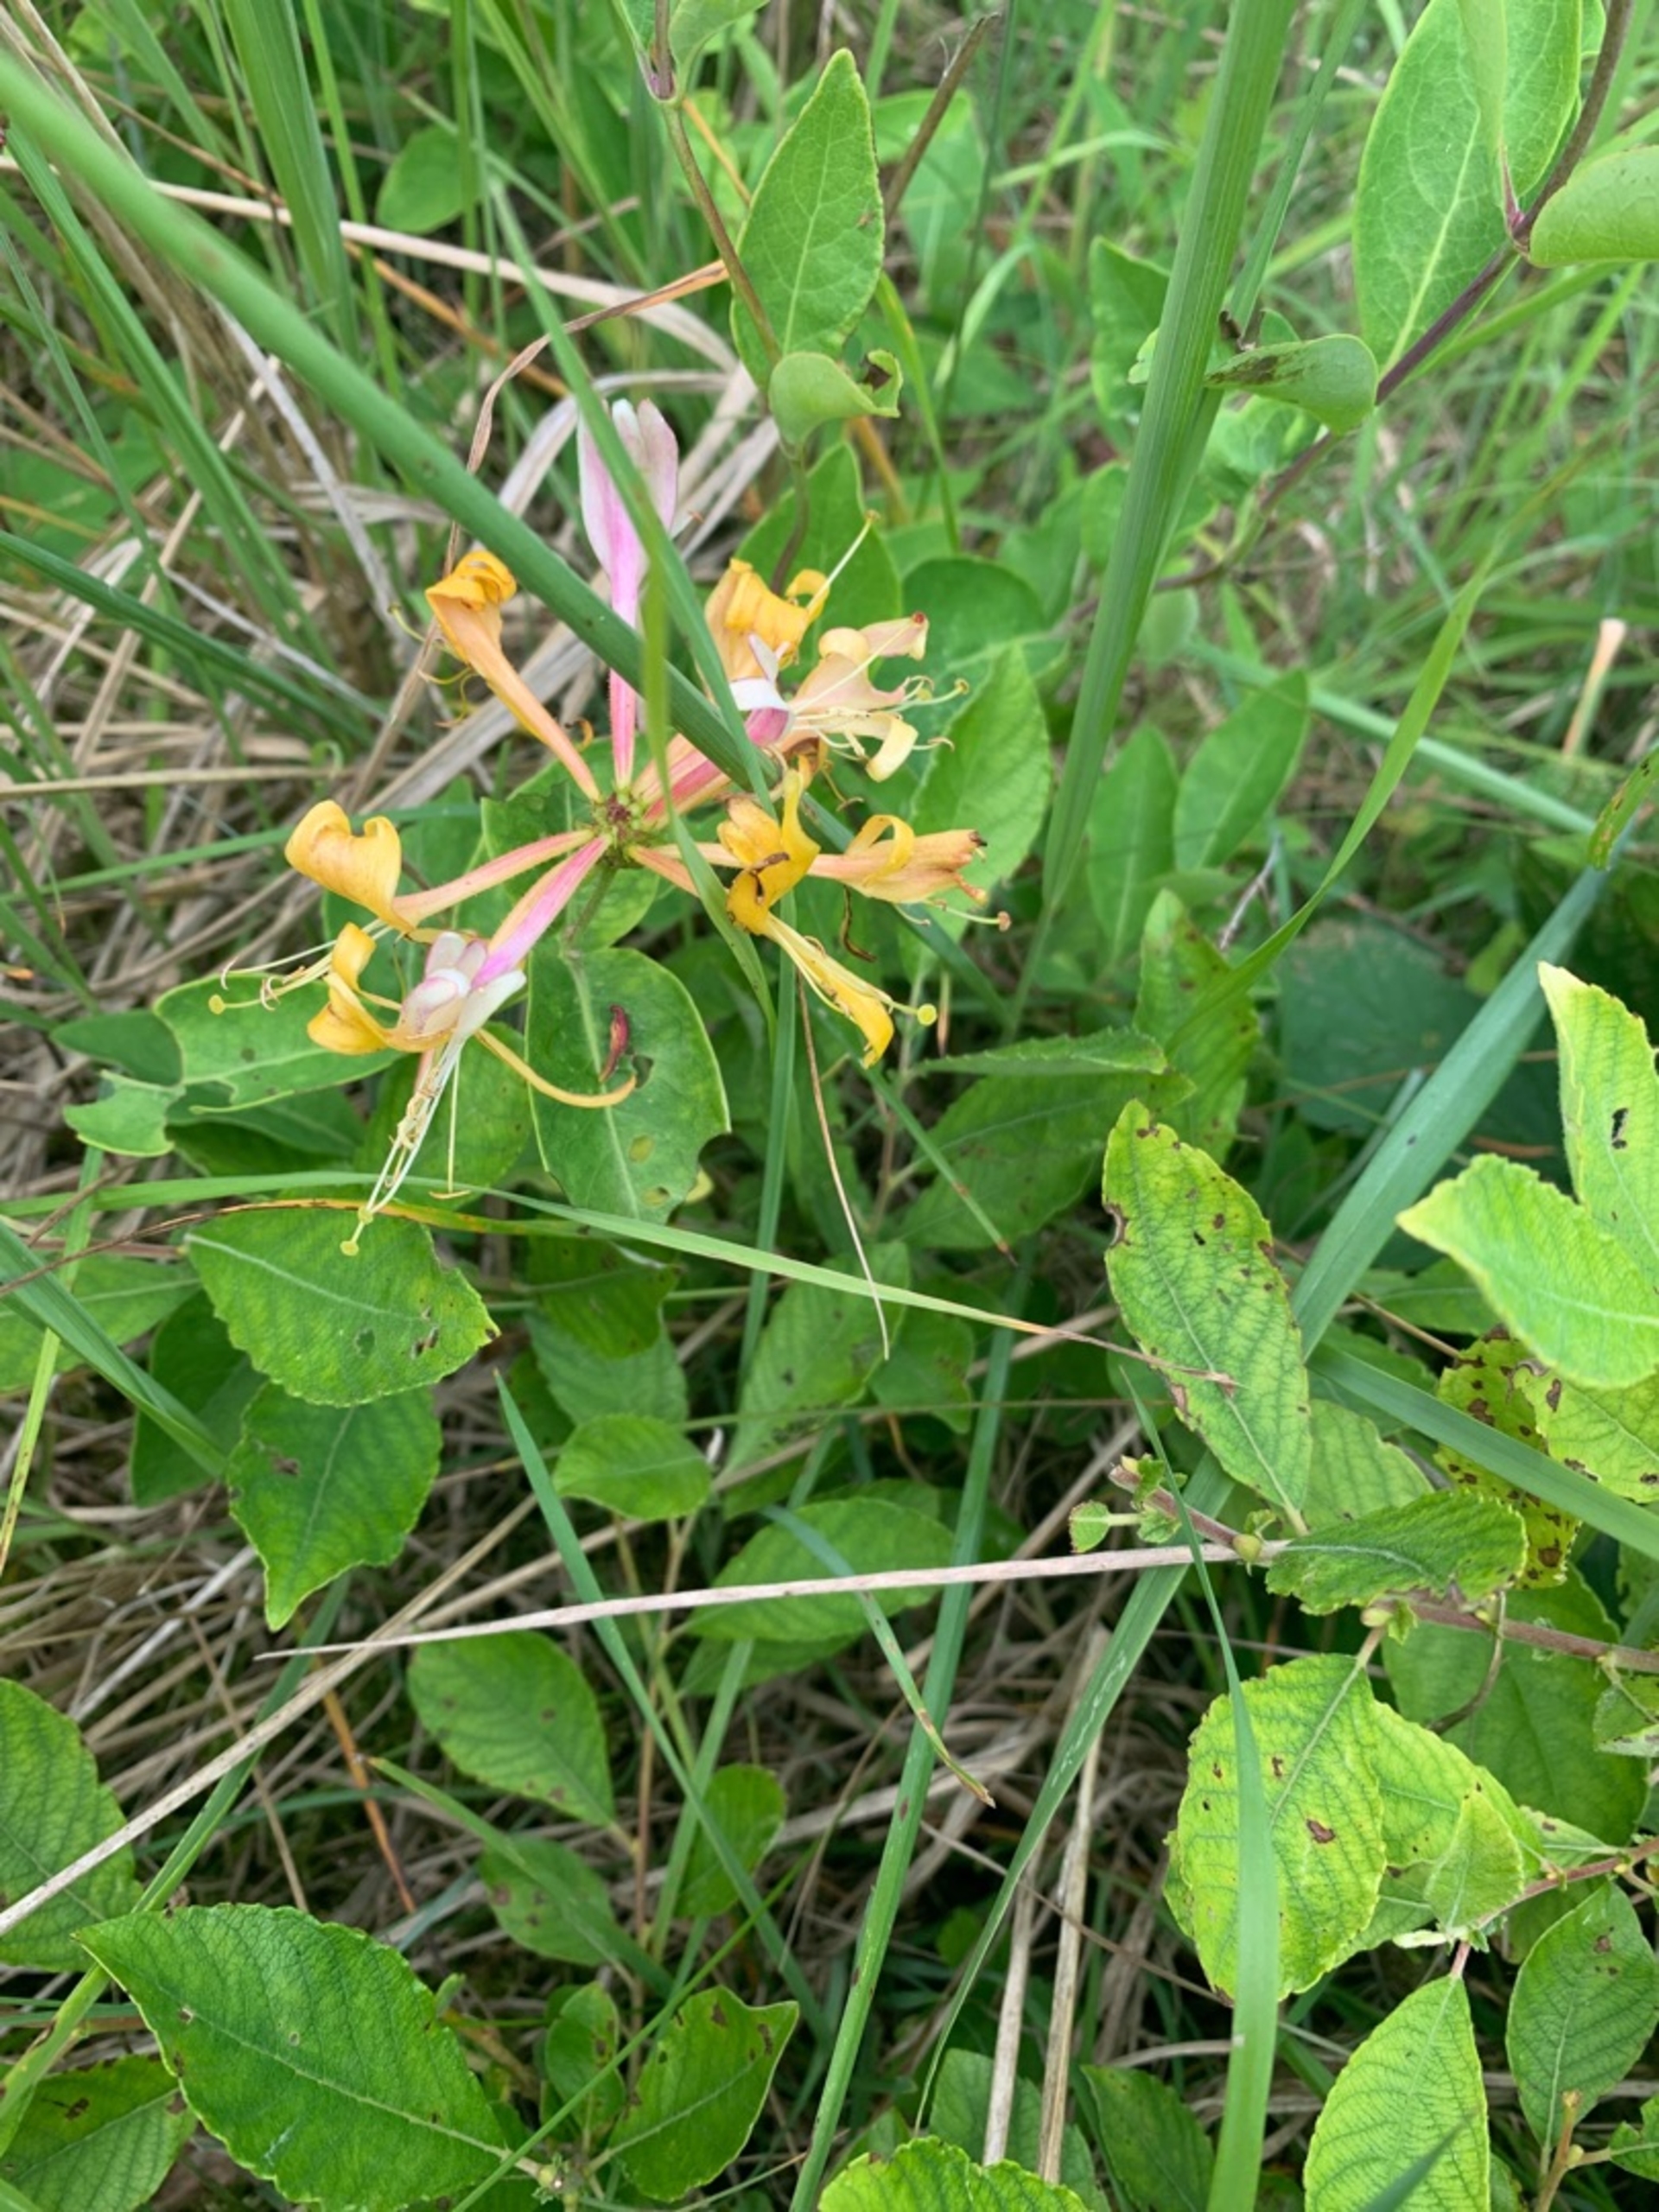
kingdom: Plantae
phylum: Tracheophyta
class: Magnoliopsida
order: Dipsacales
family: Caprifoliaceae
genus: Lonicera
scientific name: Lonicera periclymenum
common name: Almindelig gedeblad
